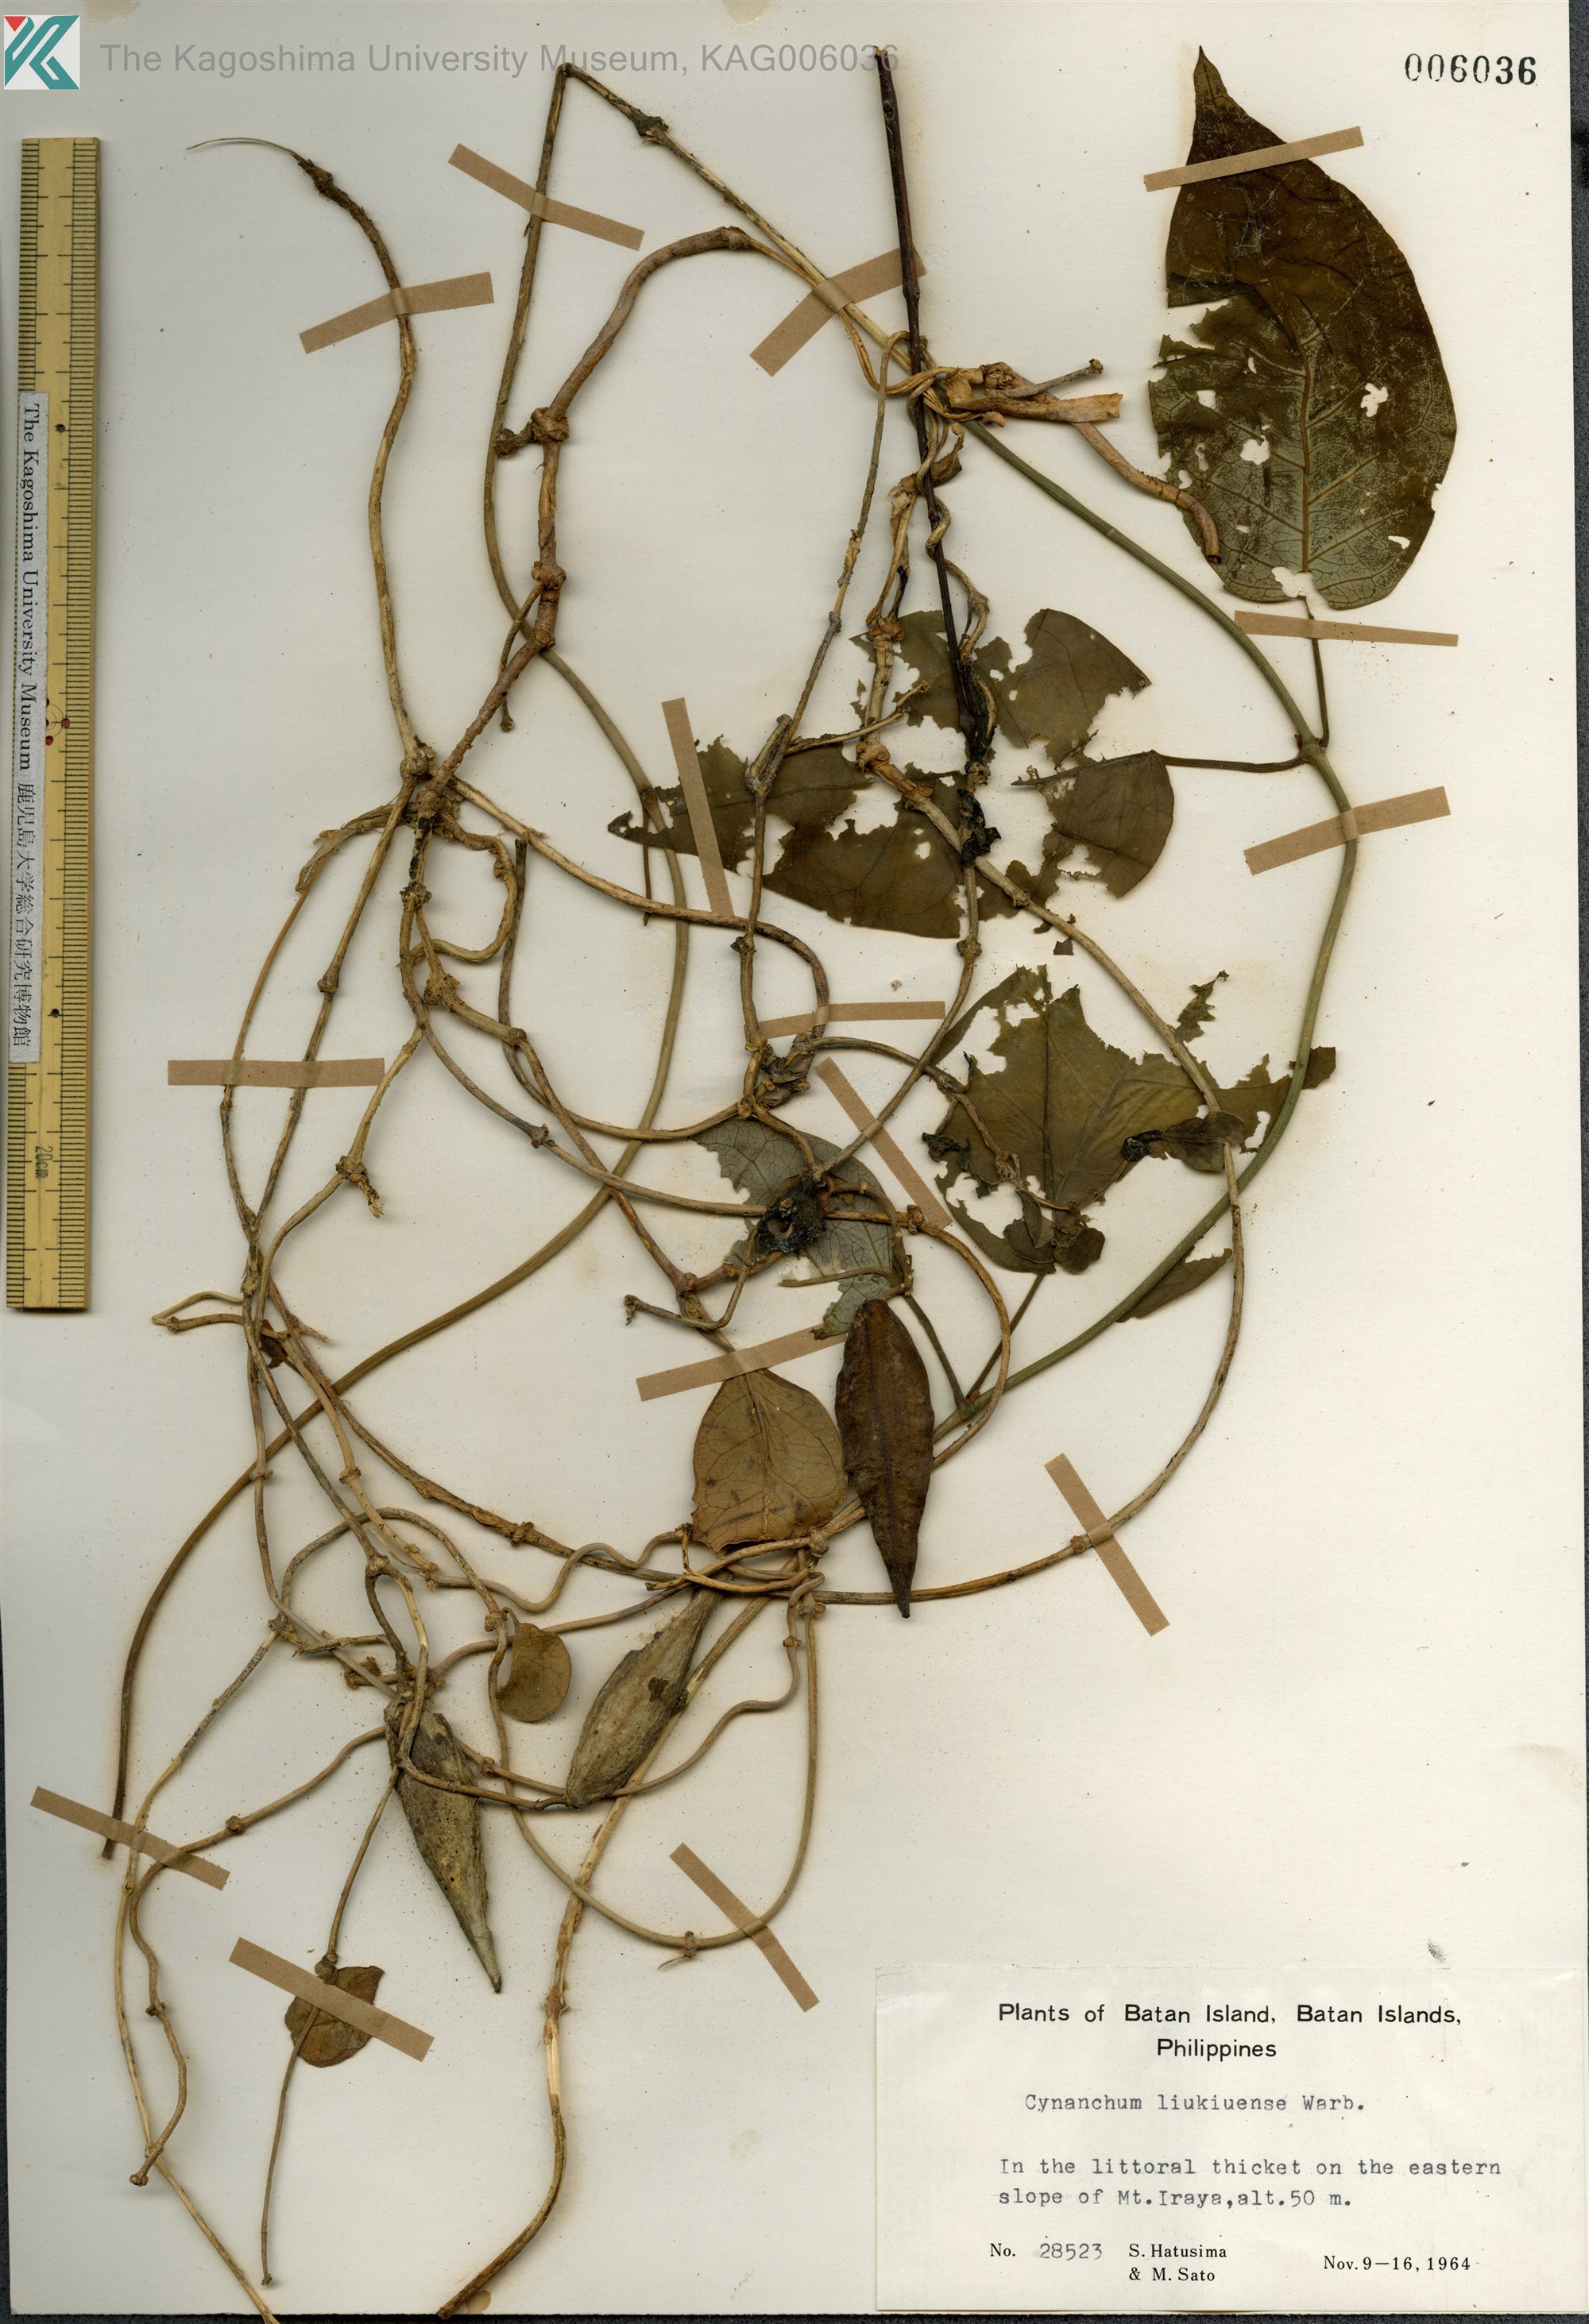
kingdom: Plantae
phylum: Tracheophyta
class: Magnoliopsida
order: Gentianales
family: Apocynaceae
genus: Cynanchum
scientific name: Cynanchum liukiuense
